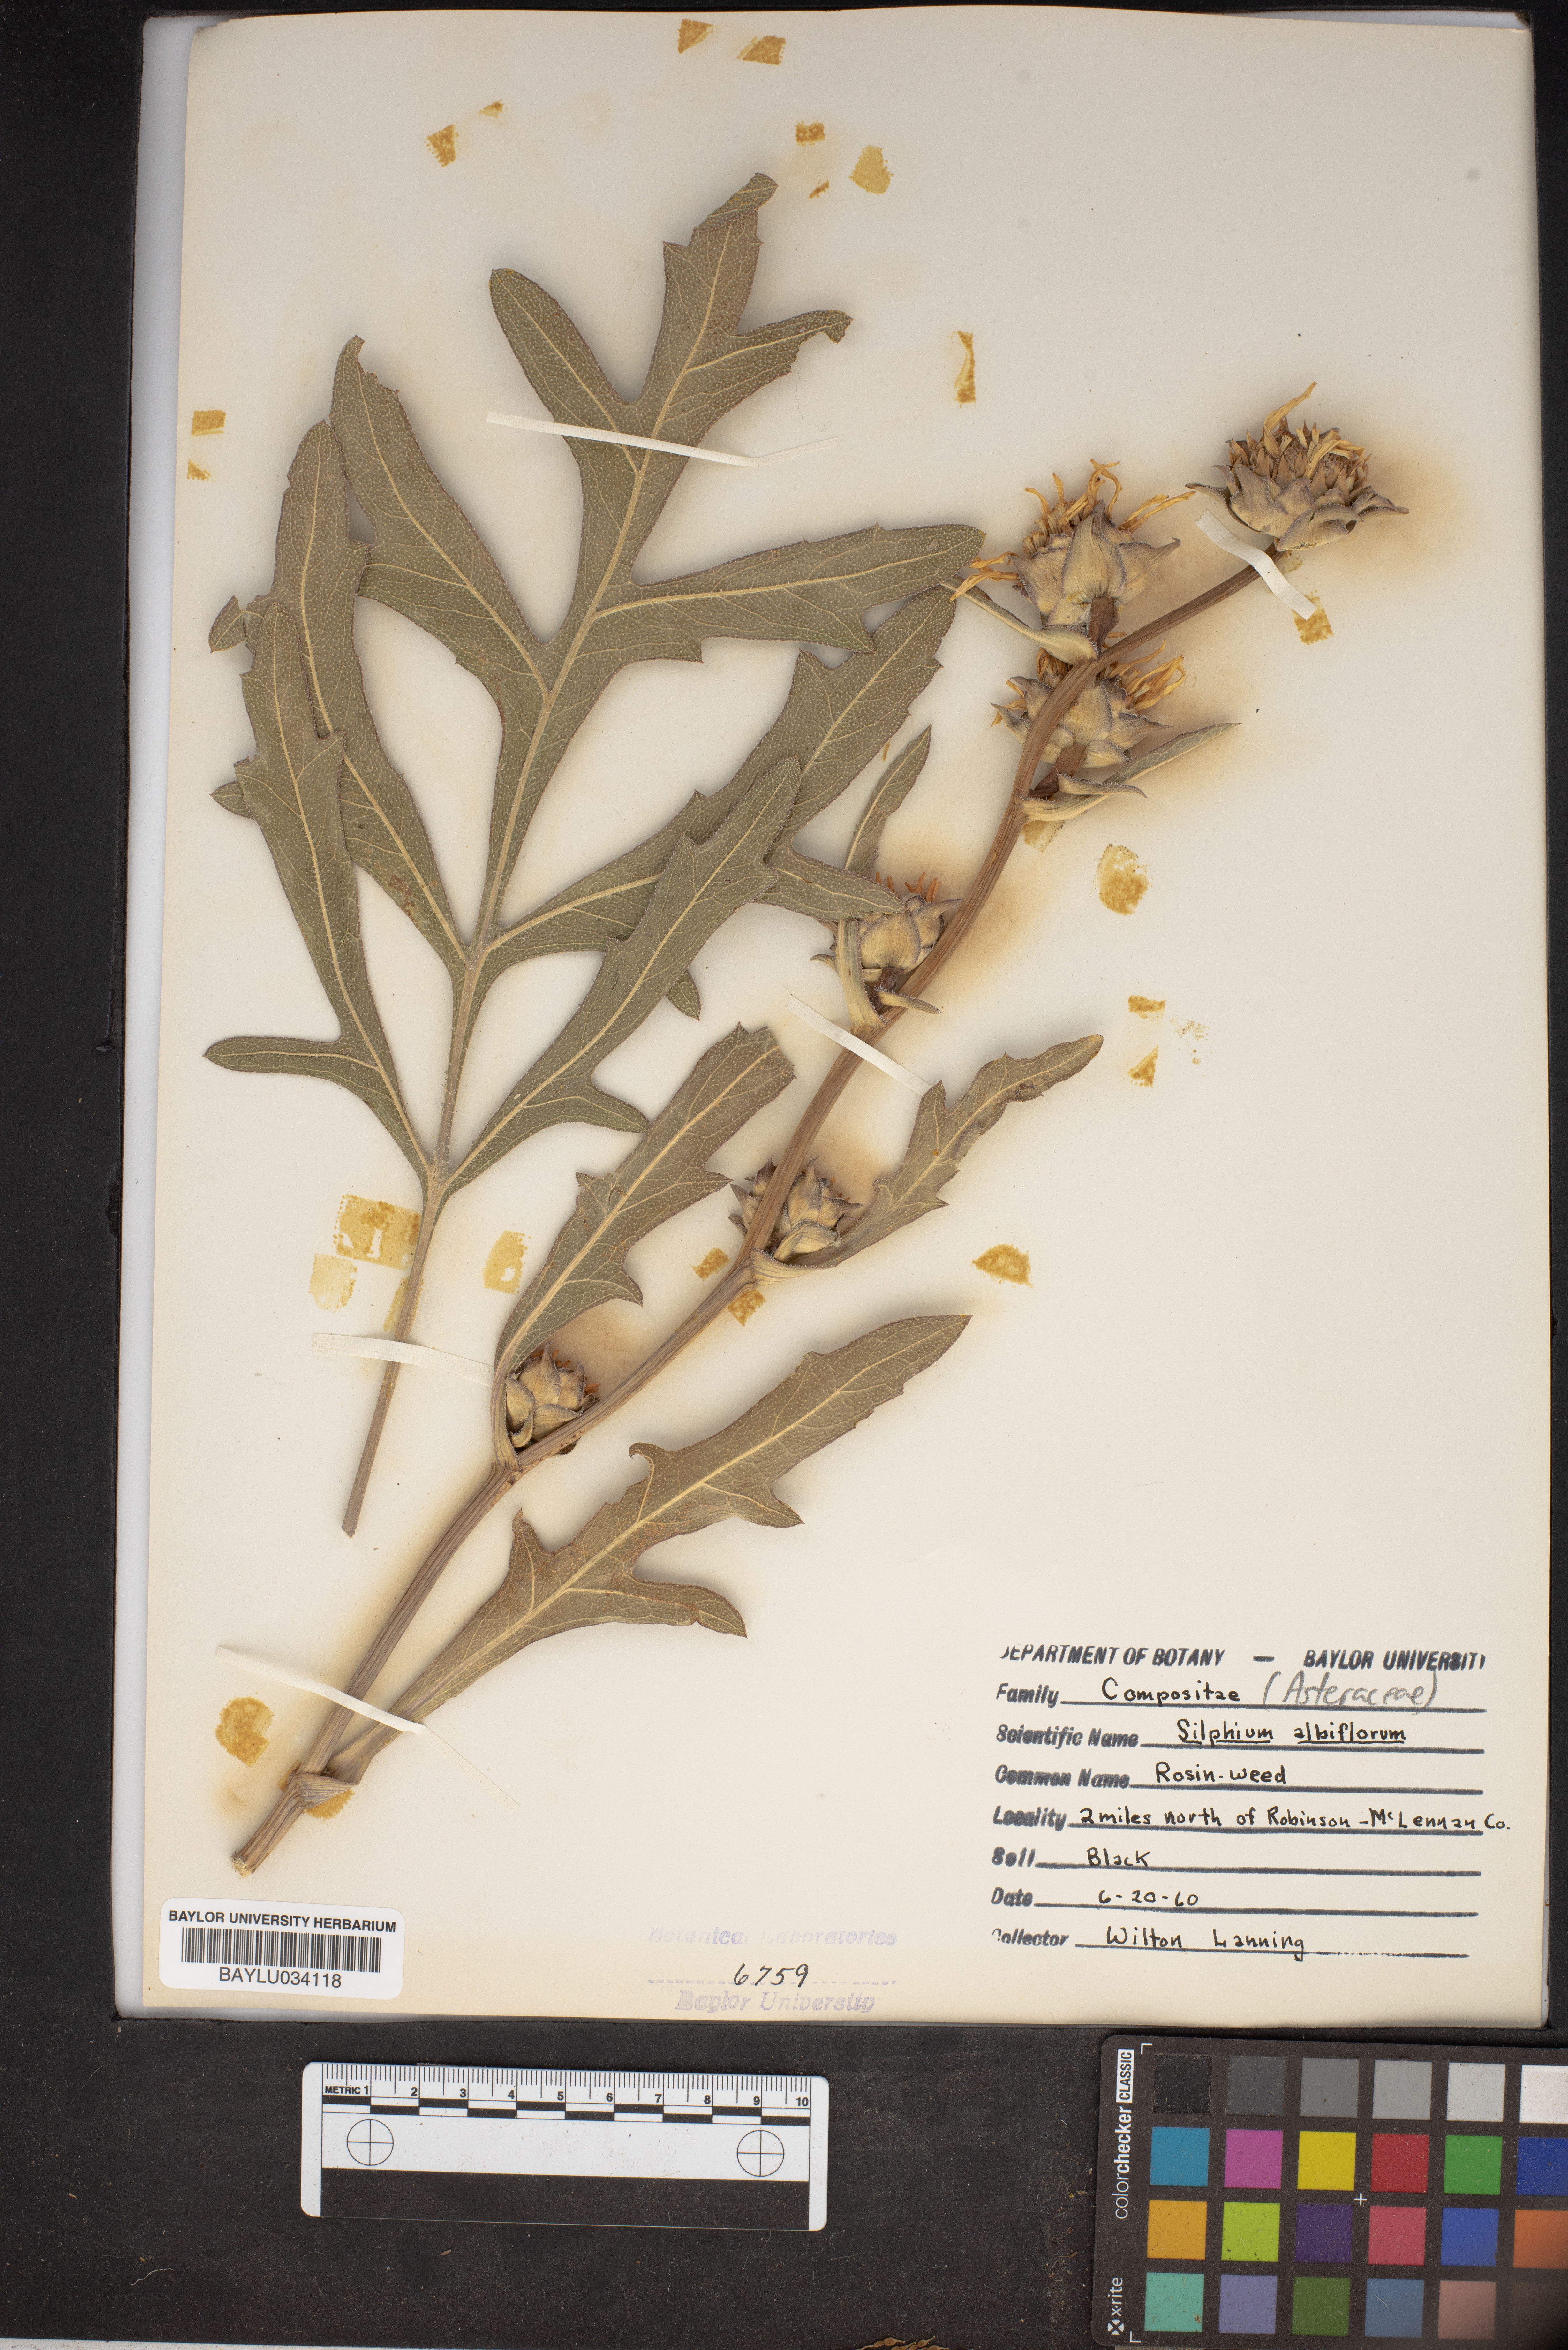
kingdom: Plantae
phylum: Tracheophyta
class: Magnoliopsida
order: Asterales
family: Asteraceae
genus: Silphium
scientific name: Silphium albiflorum
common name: White rosinweed
